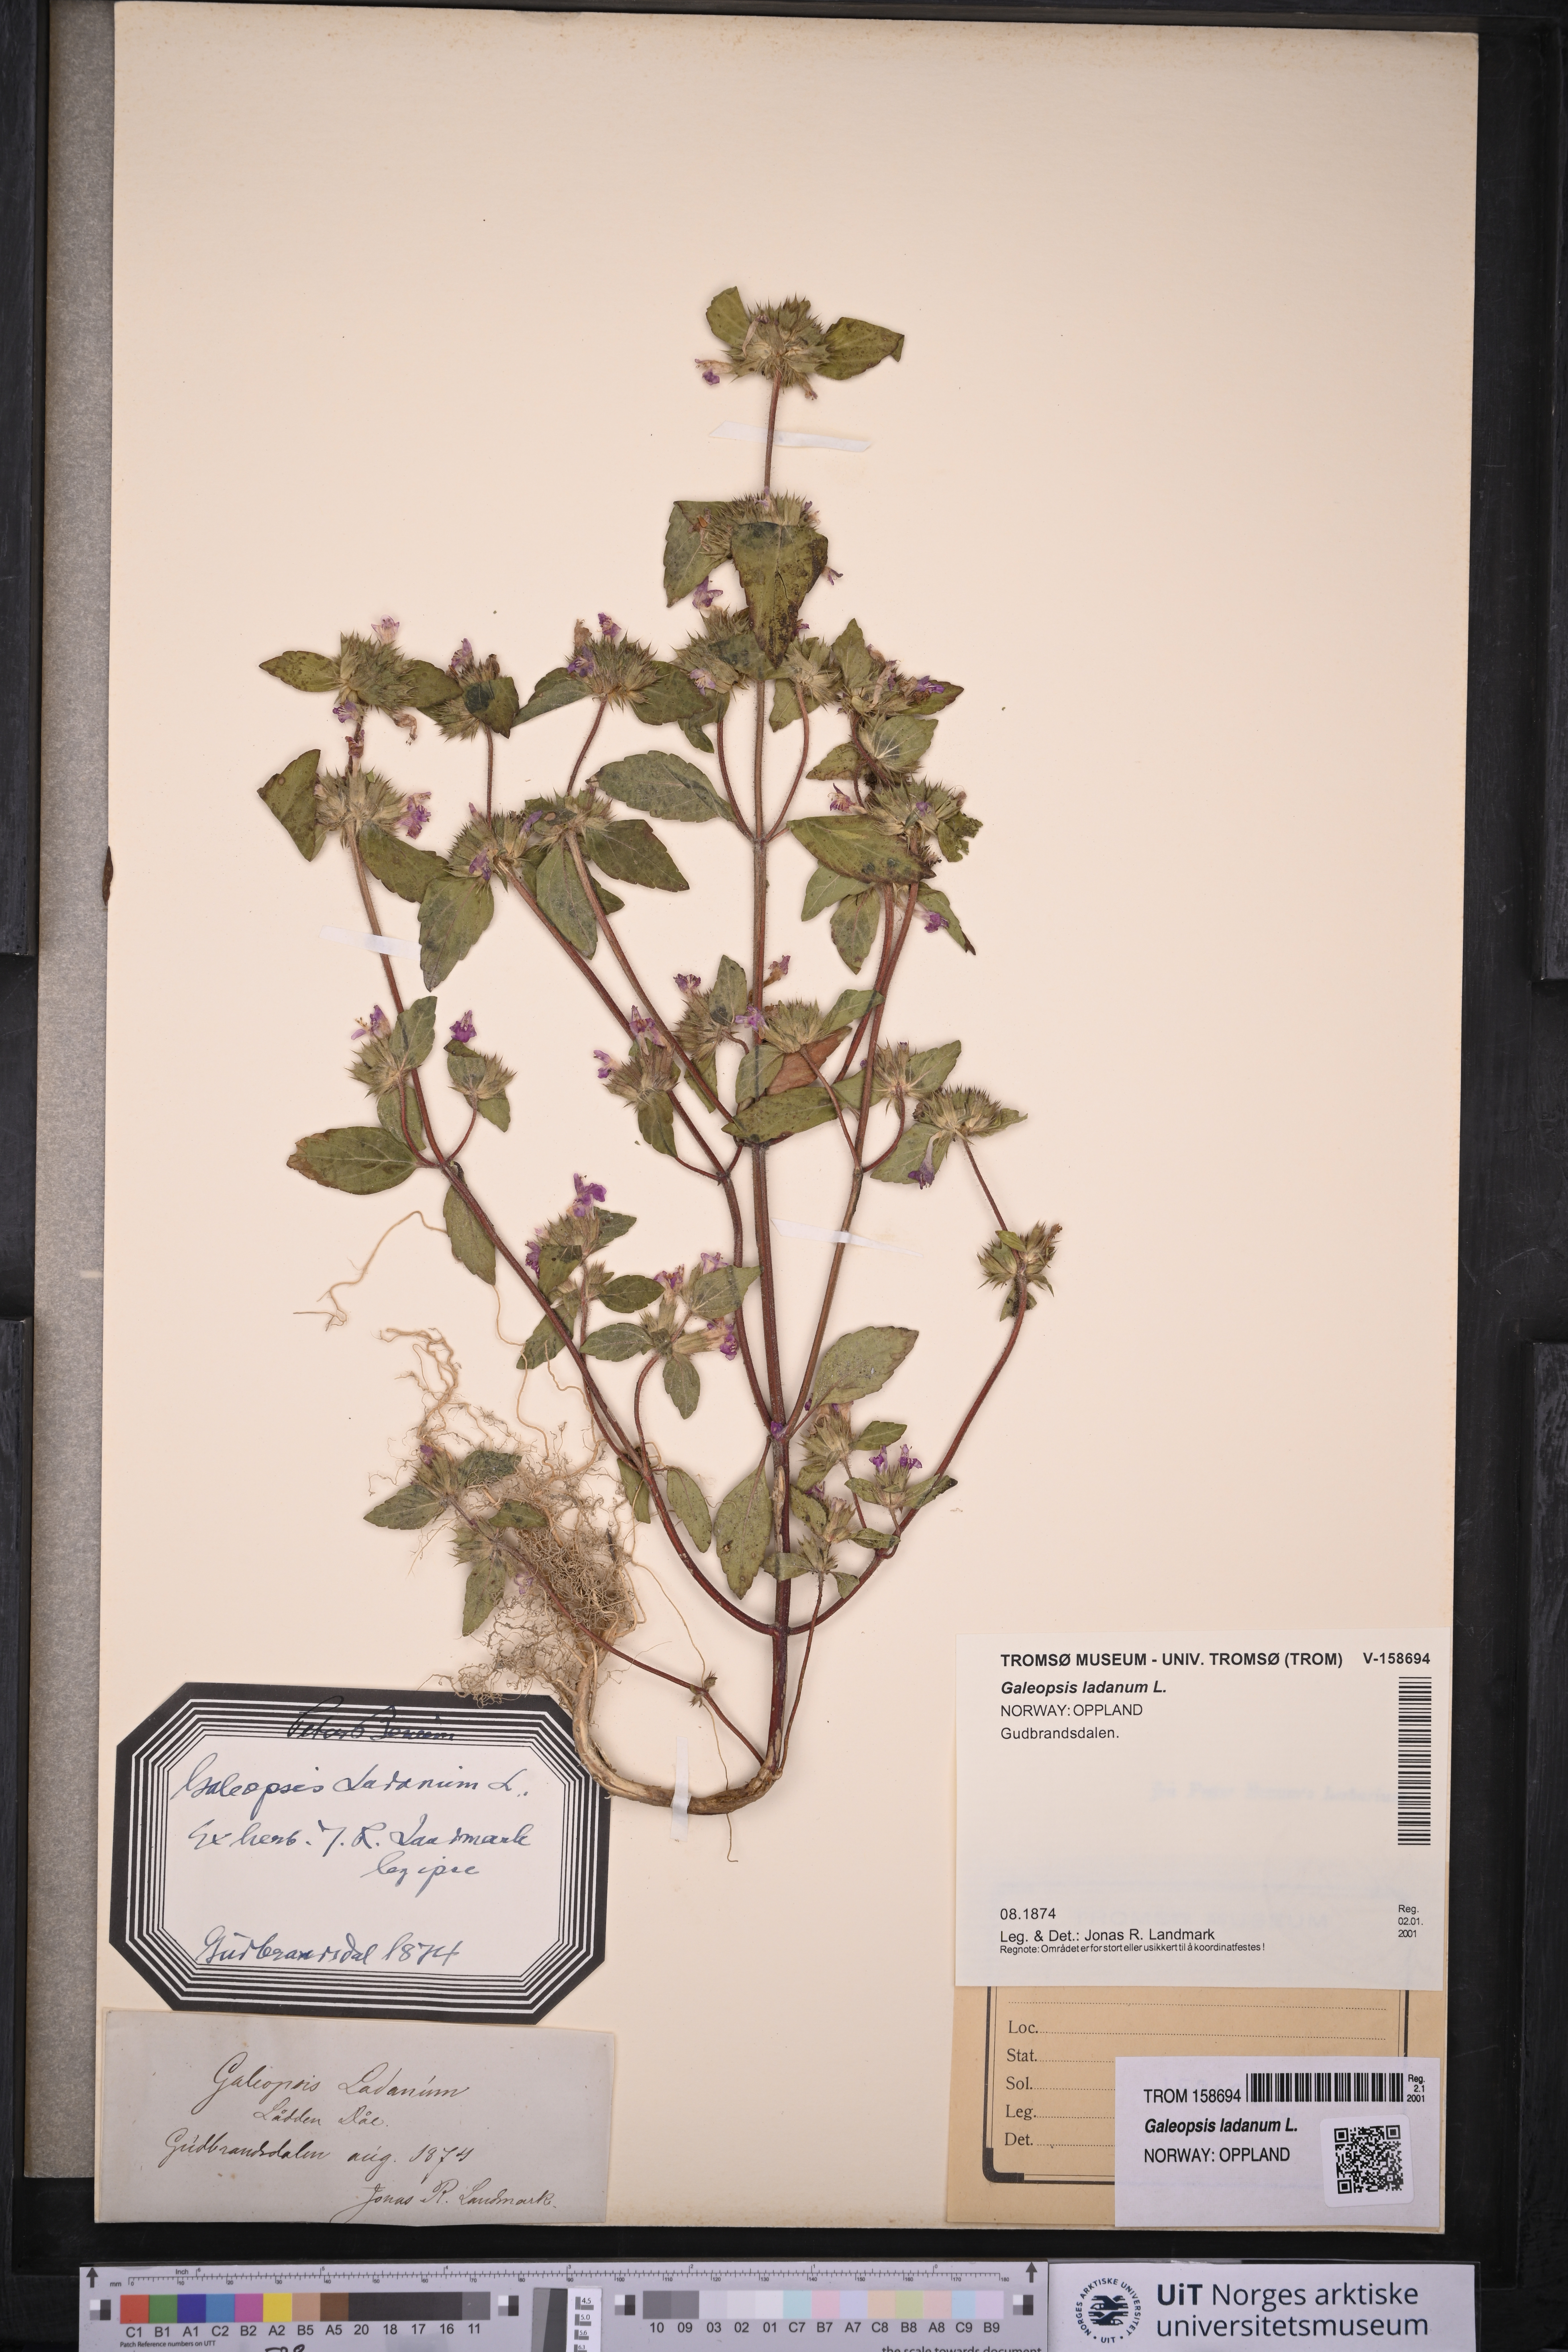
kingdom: Plantae
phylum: Tracheophyta
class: Magnoliopsida
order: Lamiales
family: Lamiaceae
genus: Galeopsis
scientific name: Galeopsis ladanum
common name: Broad-leaved hemp-nettle
